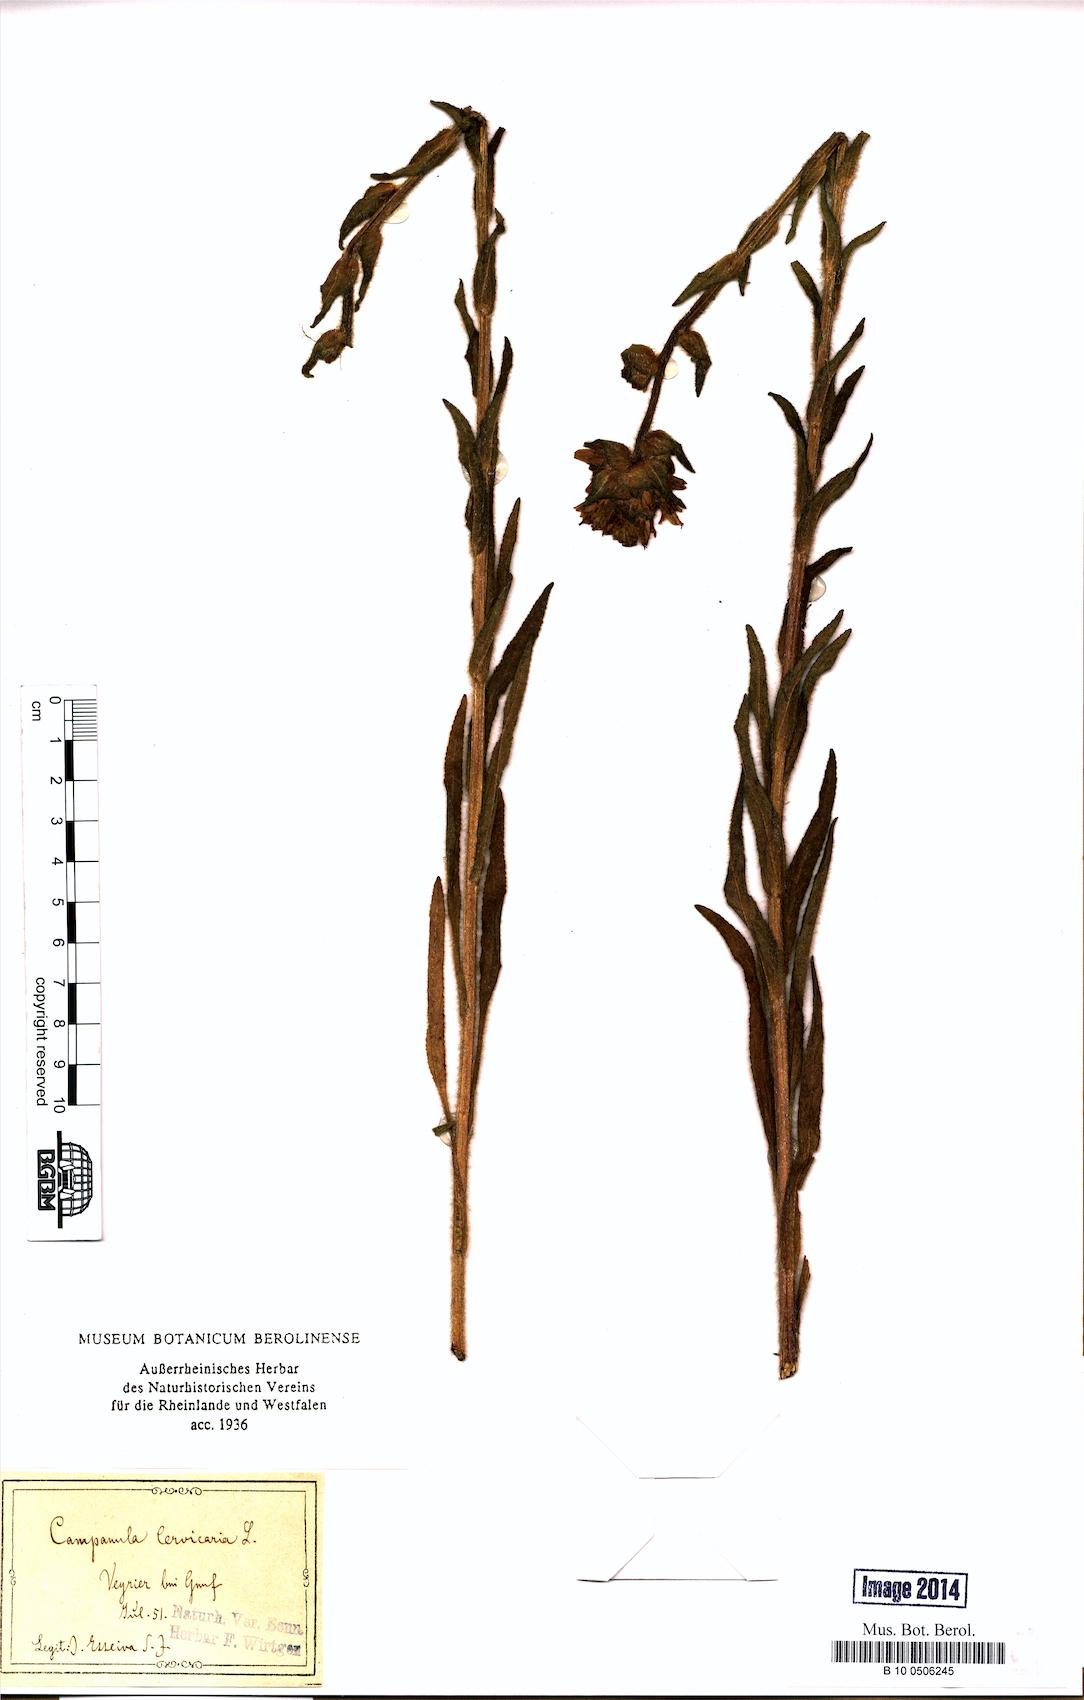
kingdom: Plantae
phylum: Tracheophyta
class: Magnoliopsida
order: Asterales
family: Campanulaceae
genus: Campanula
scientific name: Campanula cervicaria
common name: Bristly bellflower
